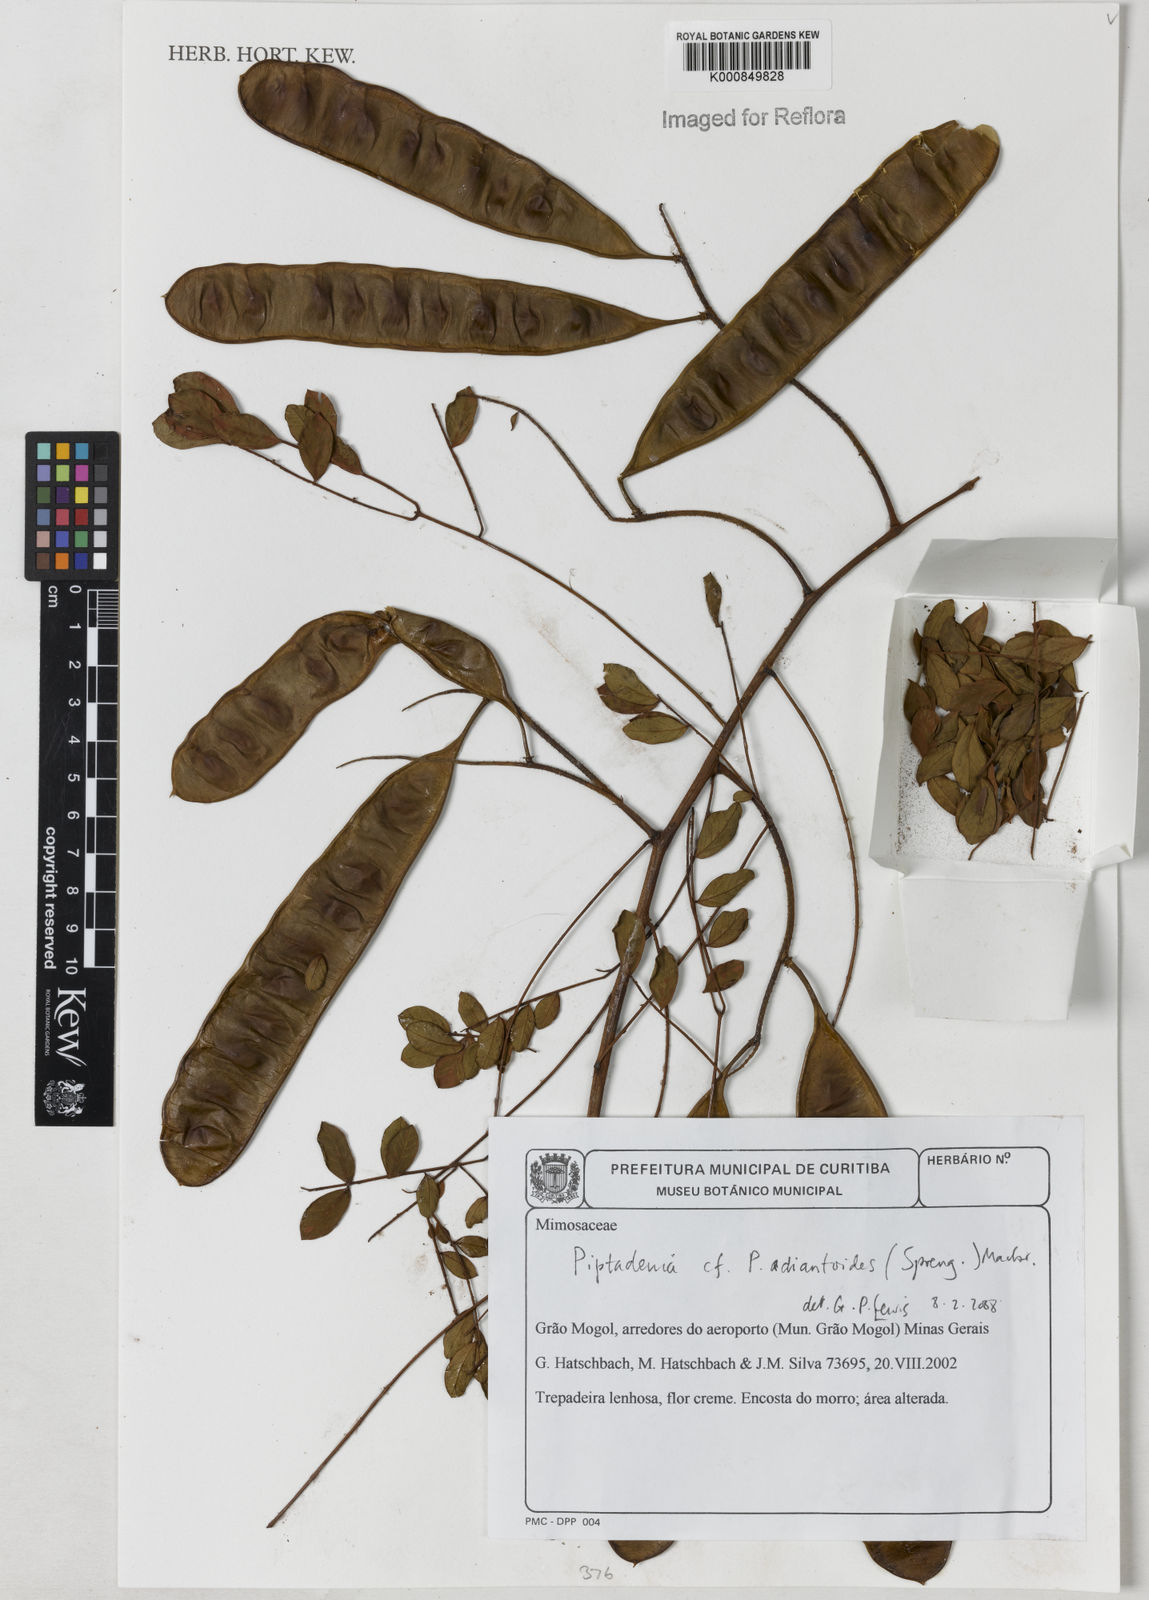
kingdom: Plantae
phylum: Tracheophyta
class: Magnoliopsida
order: Fabales
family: Fabaceae
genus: Piptadenia
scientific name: Piptadenia adiantoides
